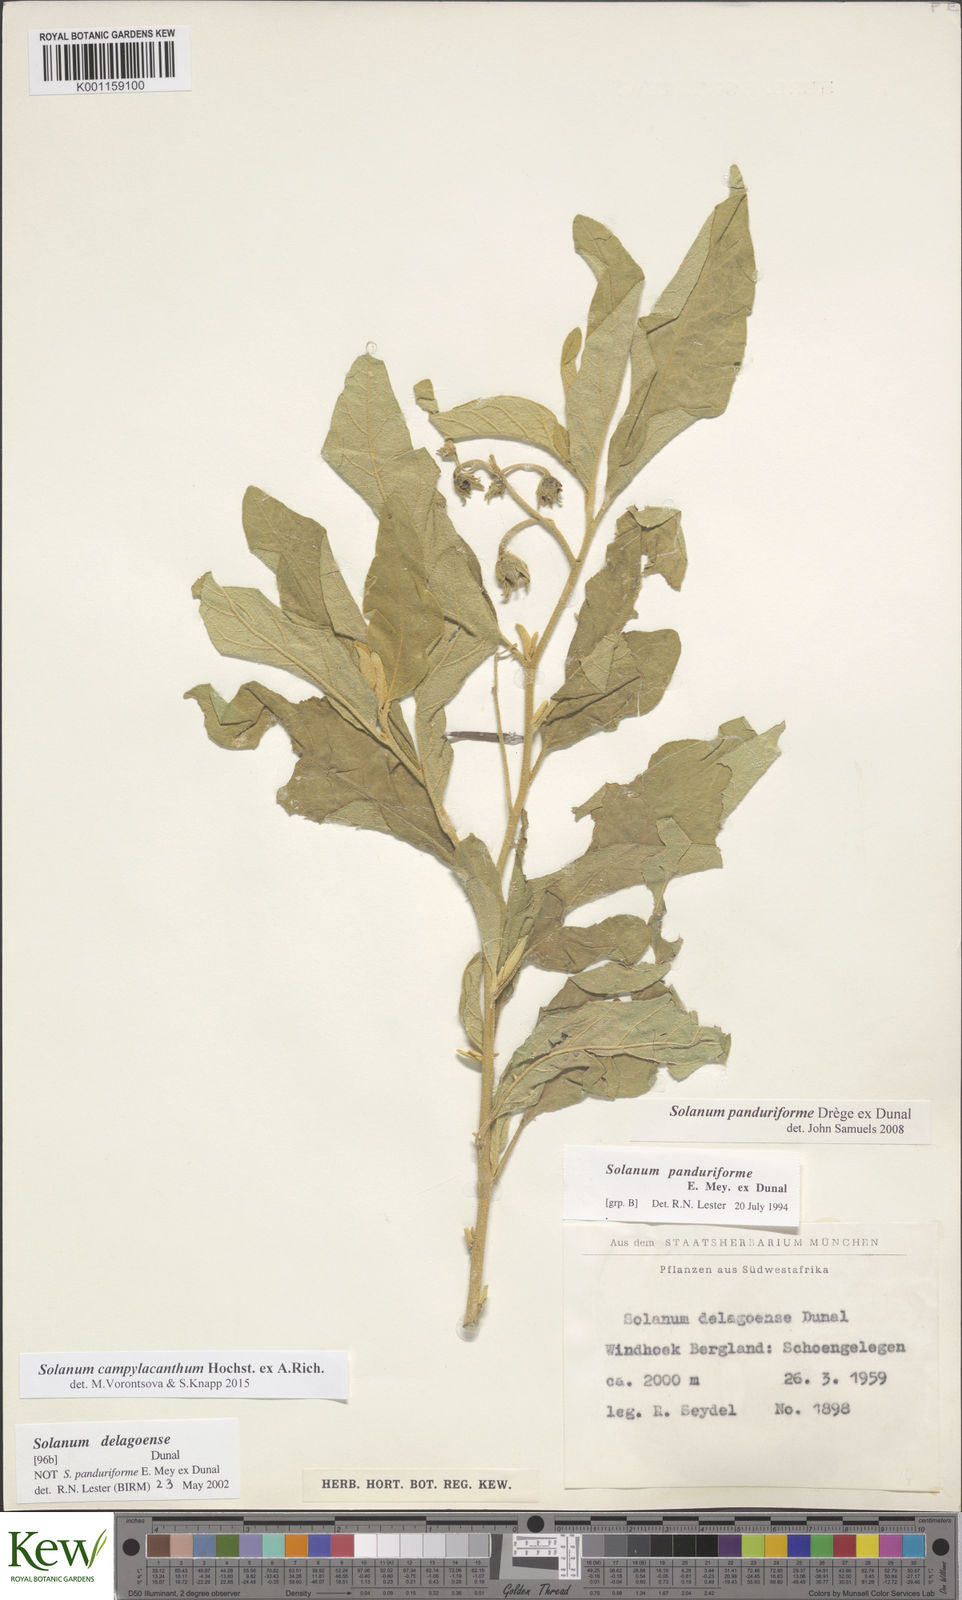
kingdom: Plantae
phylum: Tracheophyta
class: Magnoliopsida
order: Solanales
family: Solanaceae
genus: Solanum
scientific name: Solanum campylacanthum
